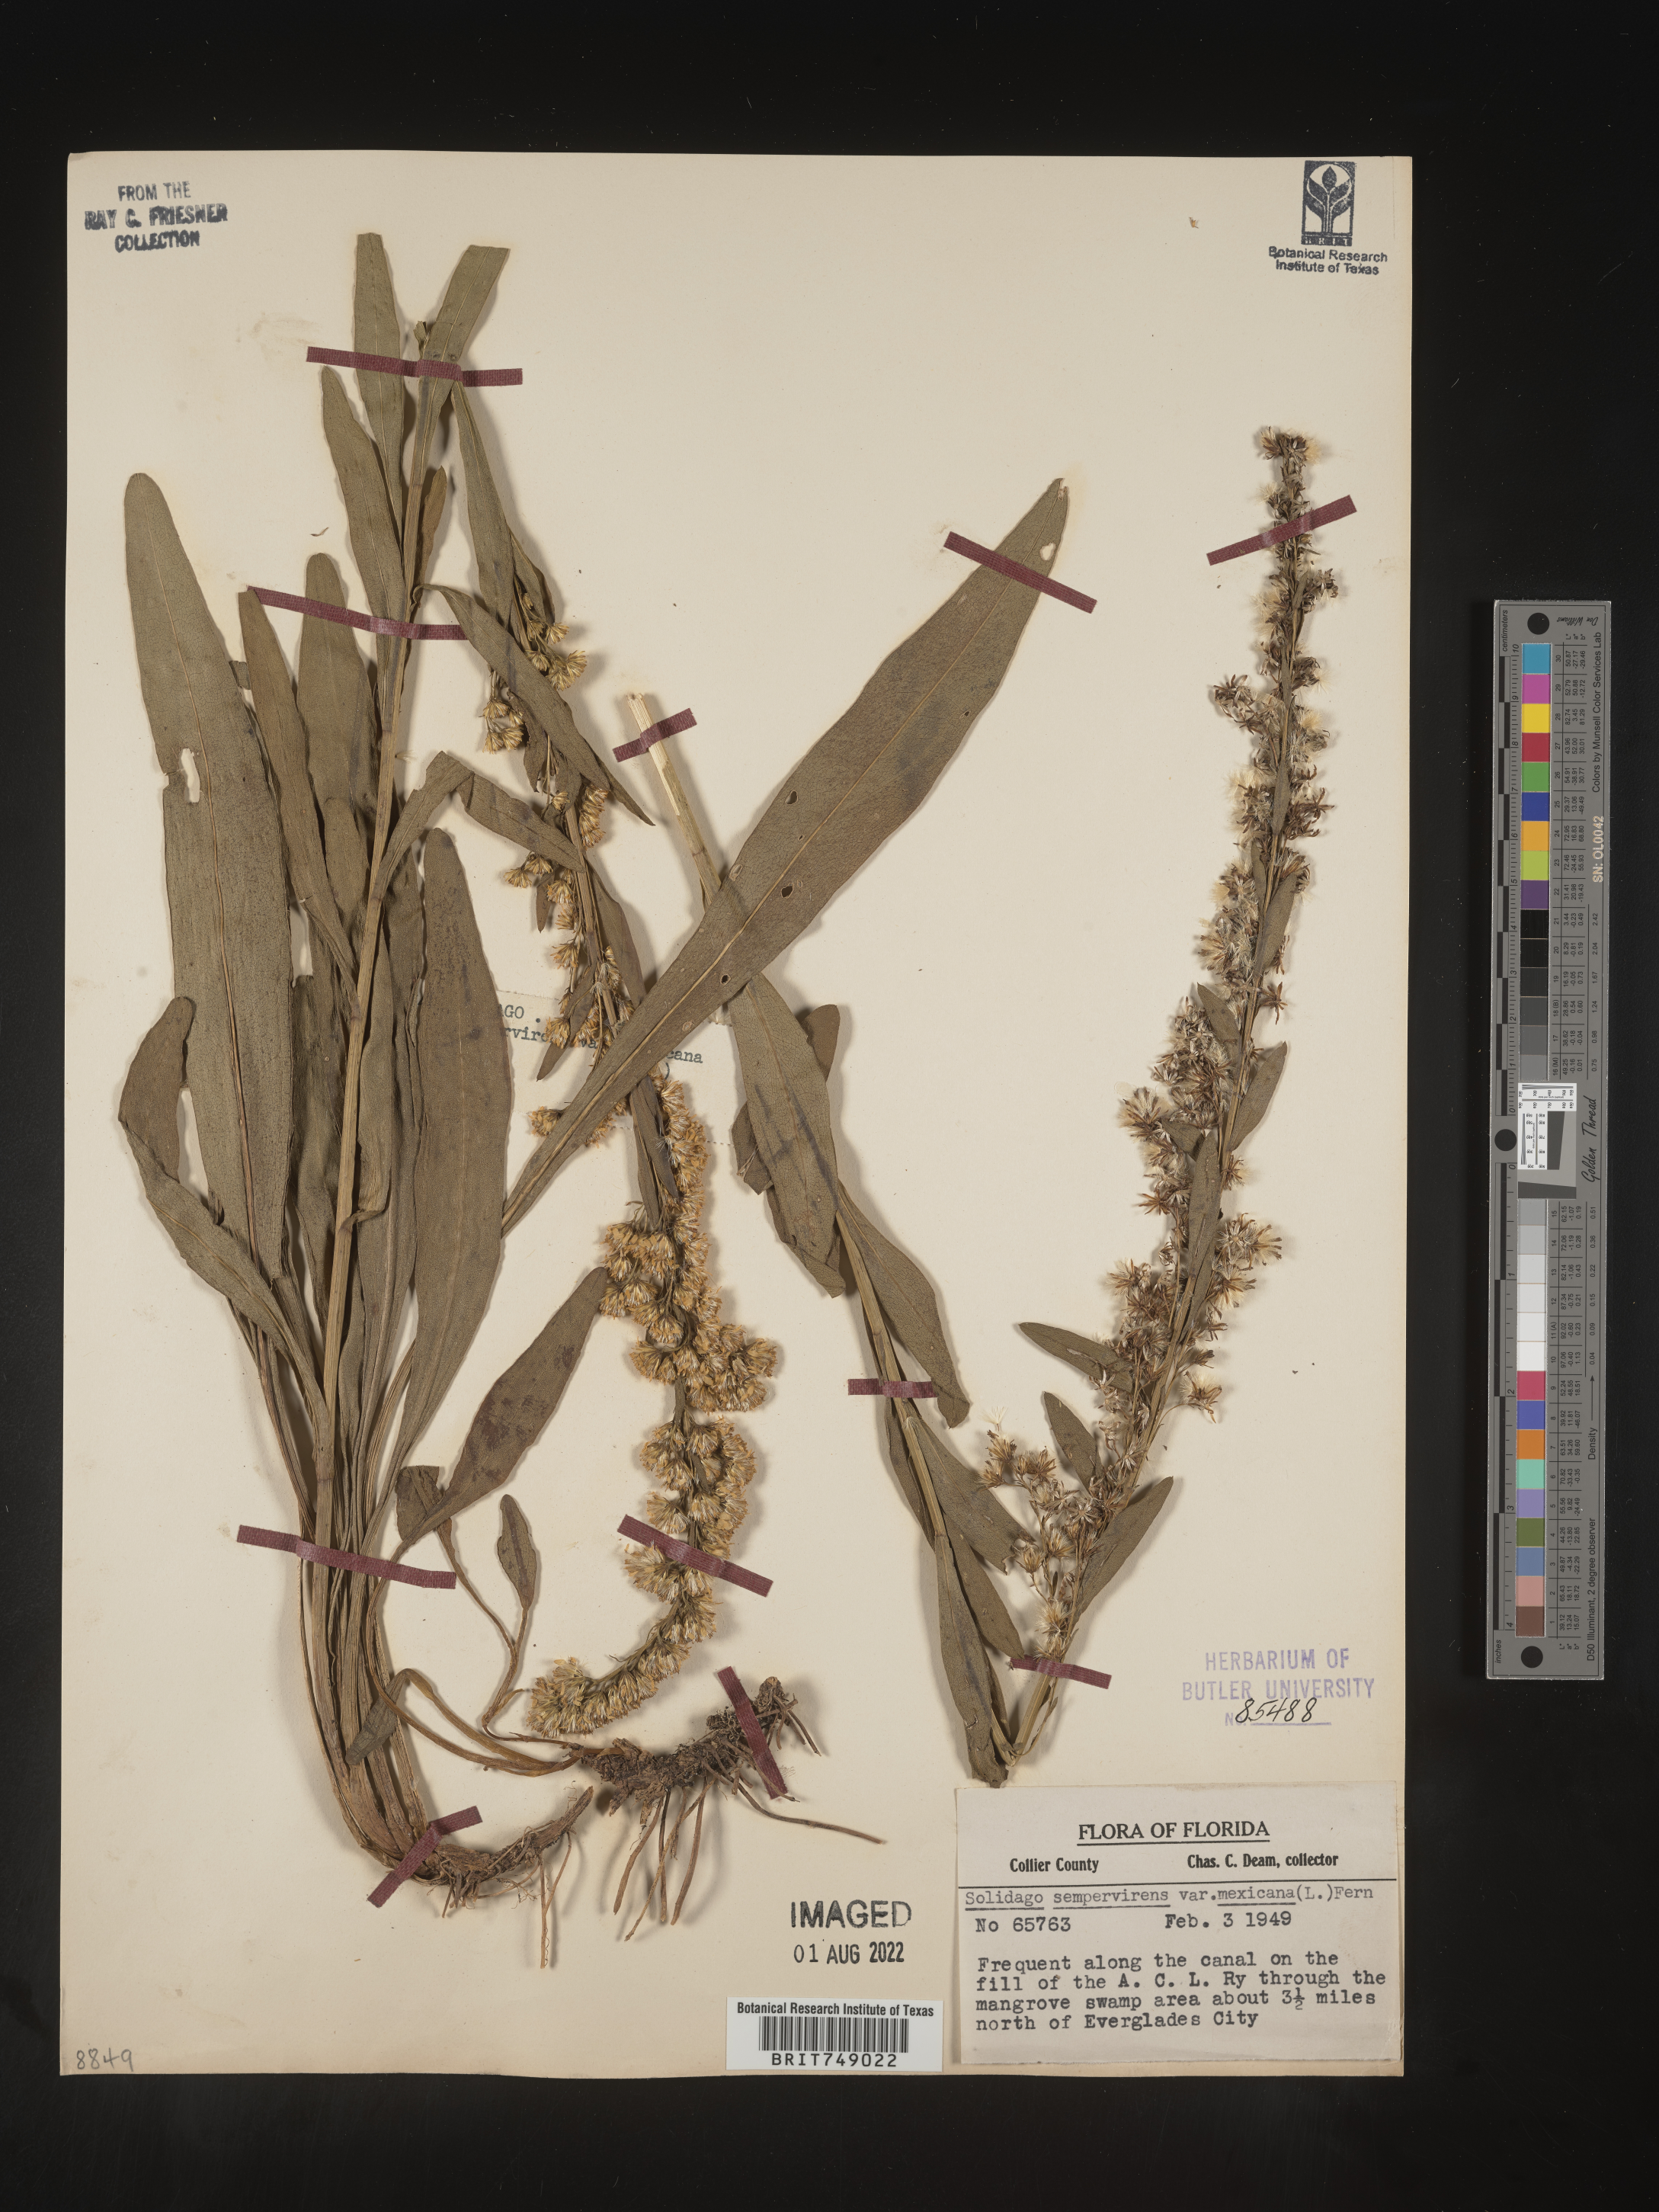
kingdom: Plantae
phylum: Tracheophyta
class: Magnoliopsida
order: Asterales
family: Asteraceae
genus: Solidago
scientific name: Solidago sempervirens
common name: Salt-marsh goldenrod
